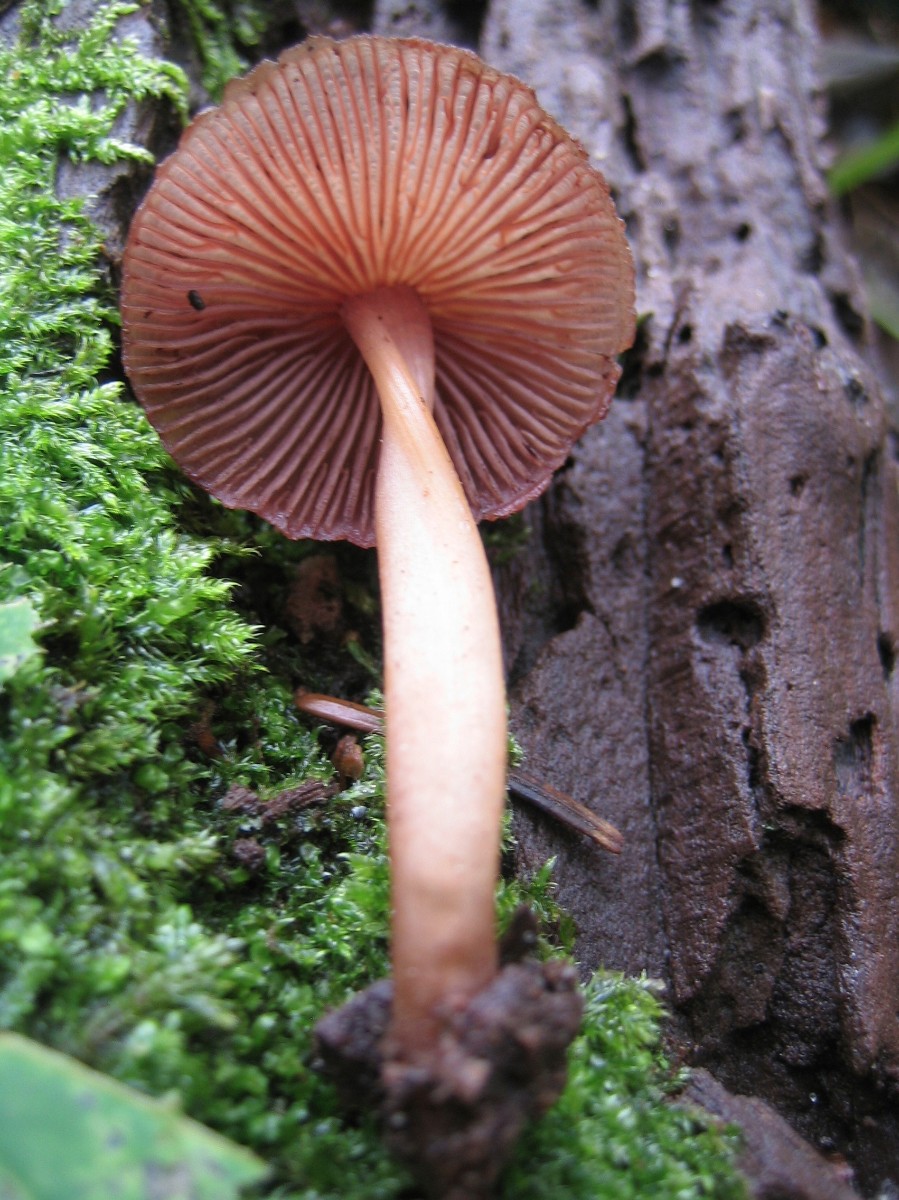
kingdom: Fungi
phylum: Basidiomycota
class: Agaricomycetes
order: Agaricales
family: Mycenaceae
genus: Mycena
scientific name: Mycena haematopus
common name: blødende huesvamp
